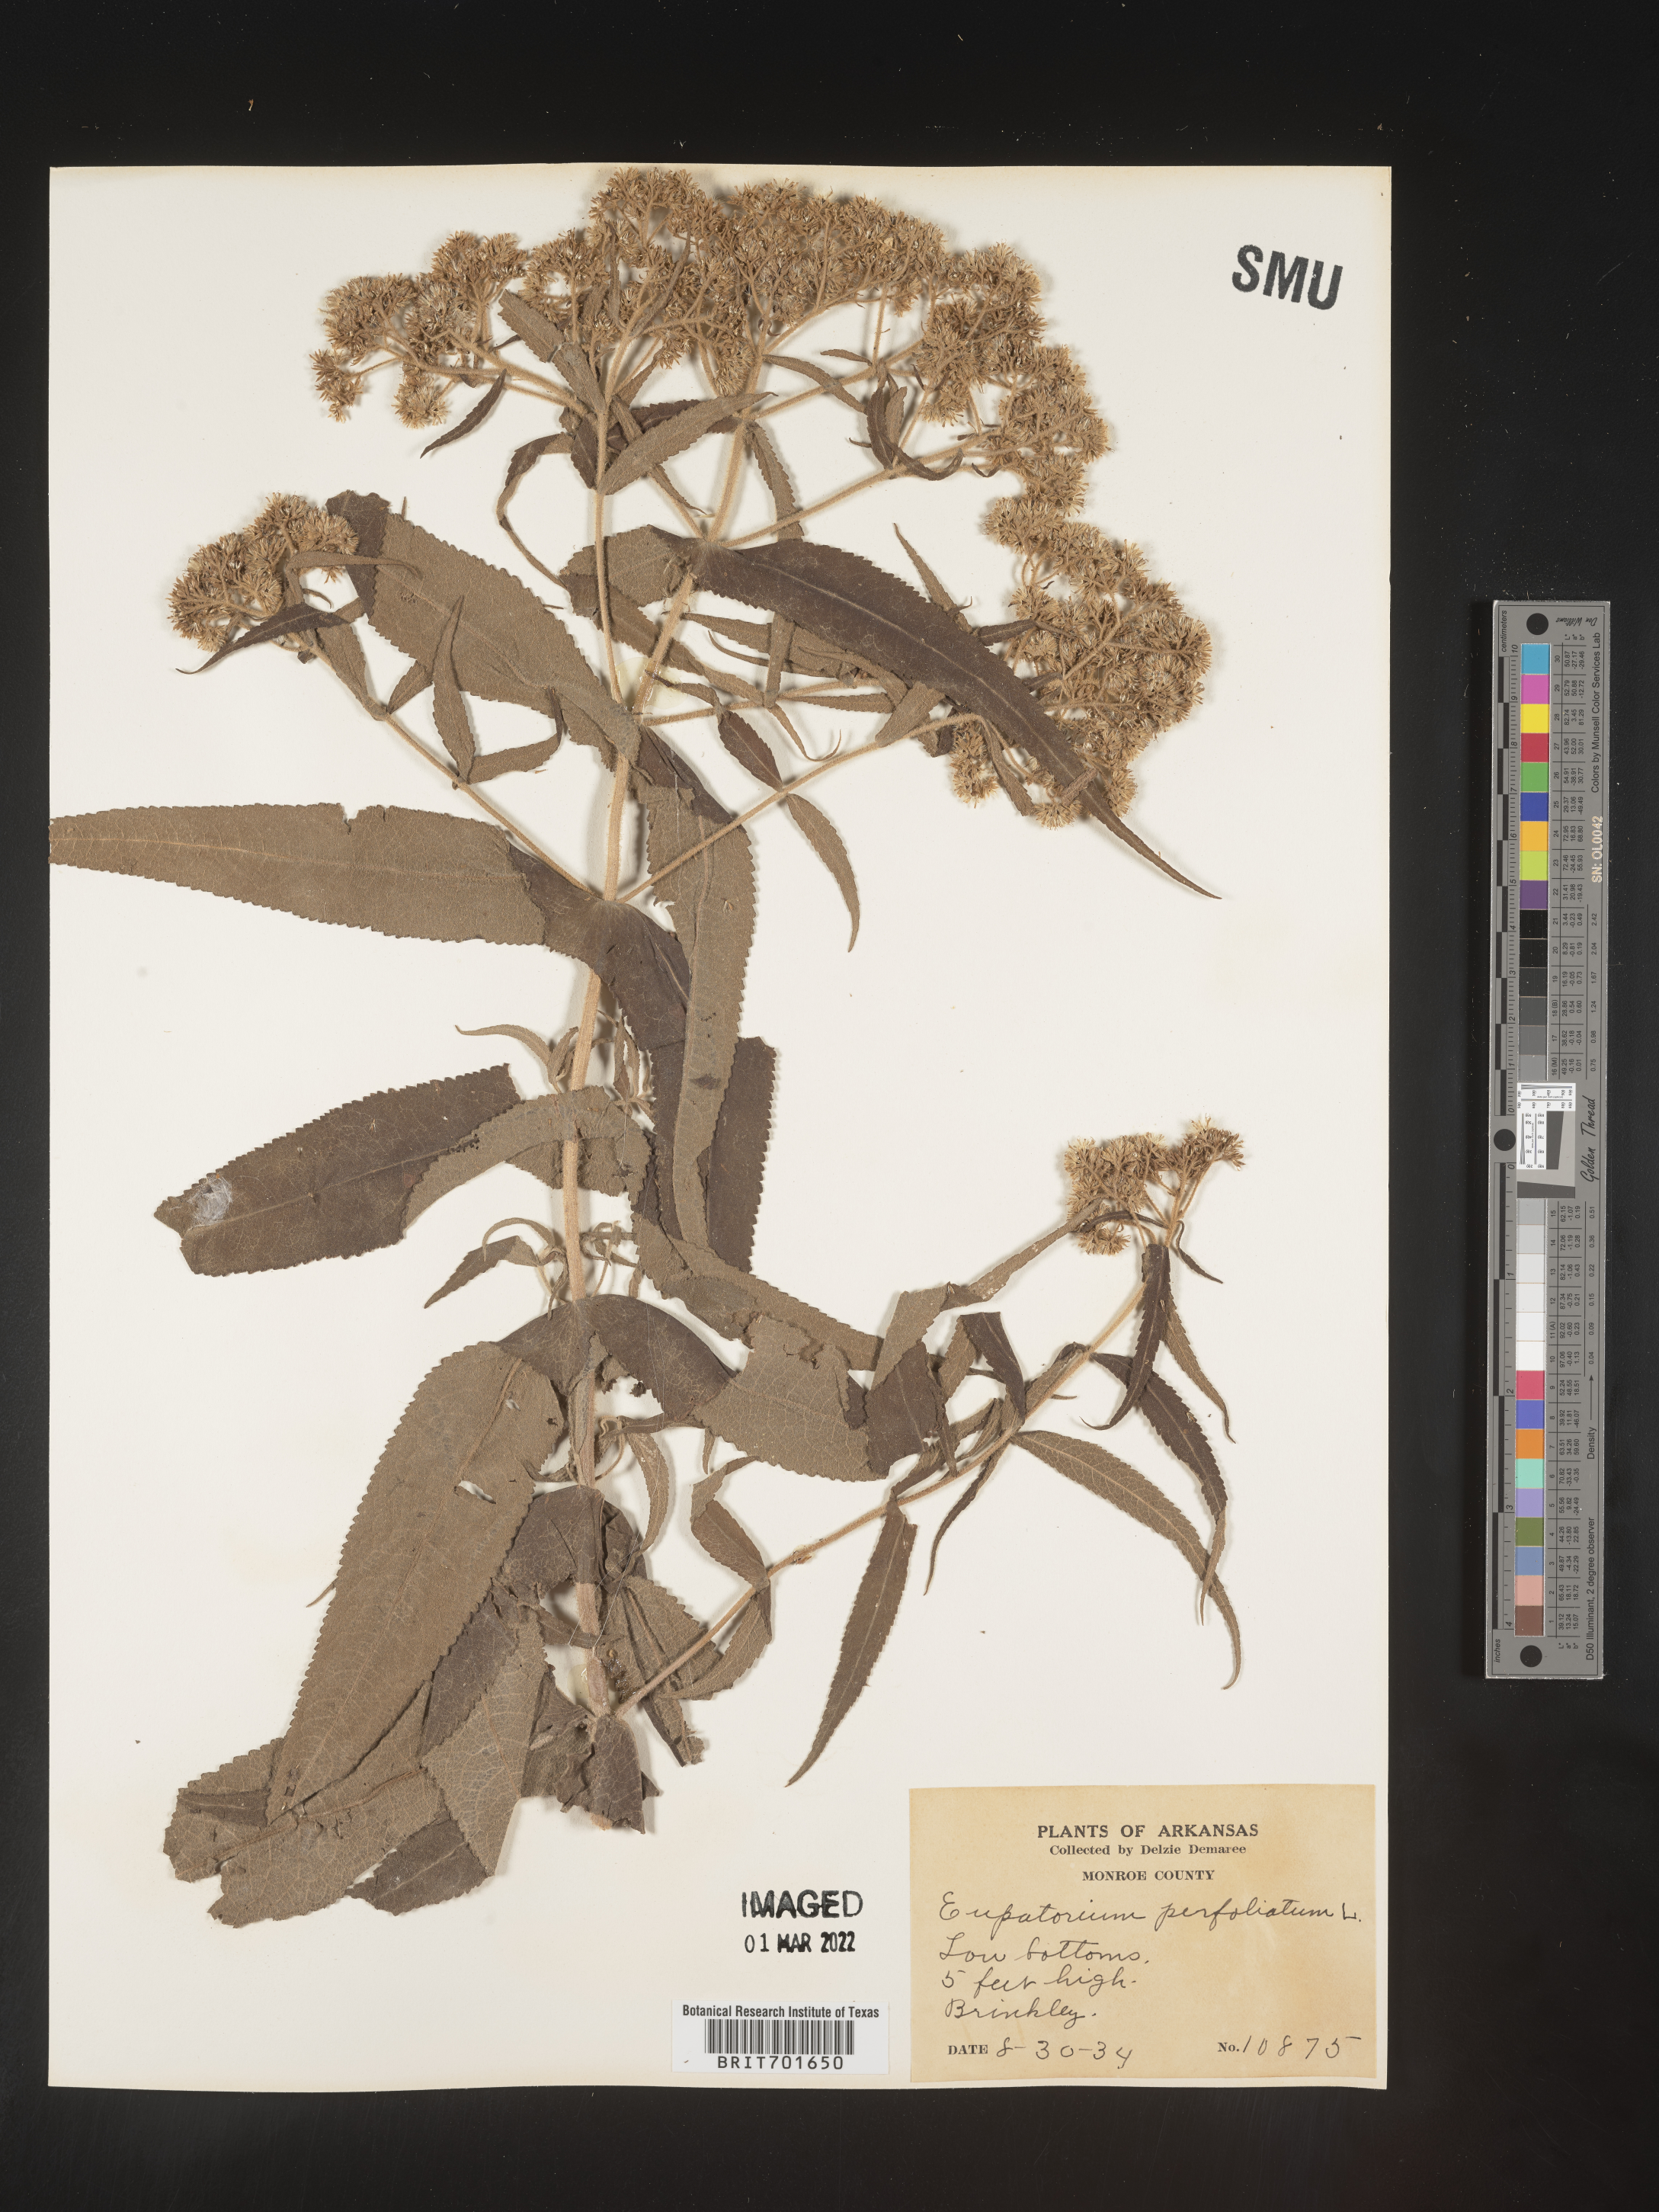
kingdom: Plantae
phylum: Tracheophyta
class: Magnoliopsida
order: Asterales
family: Asteraceae
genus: Eupatorium
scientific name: Eupatorium perfoliatum
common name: Boneset
